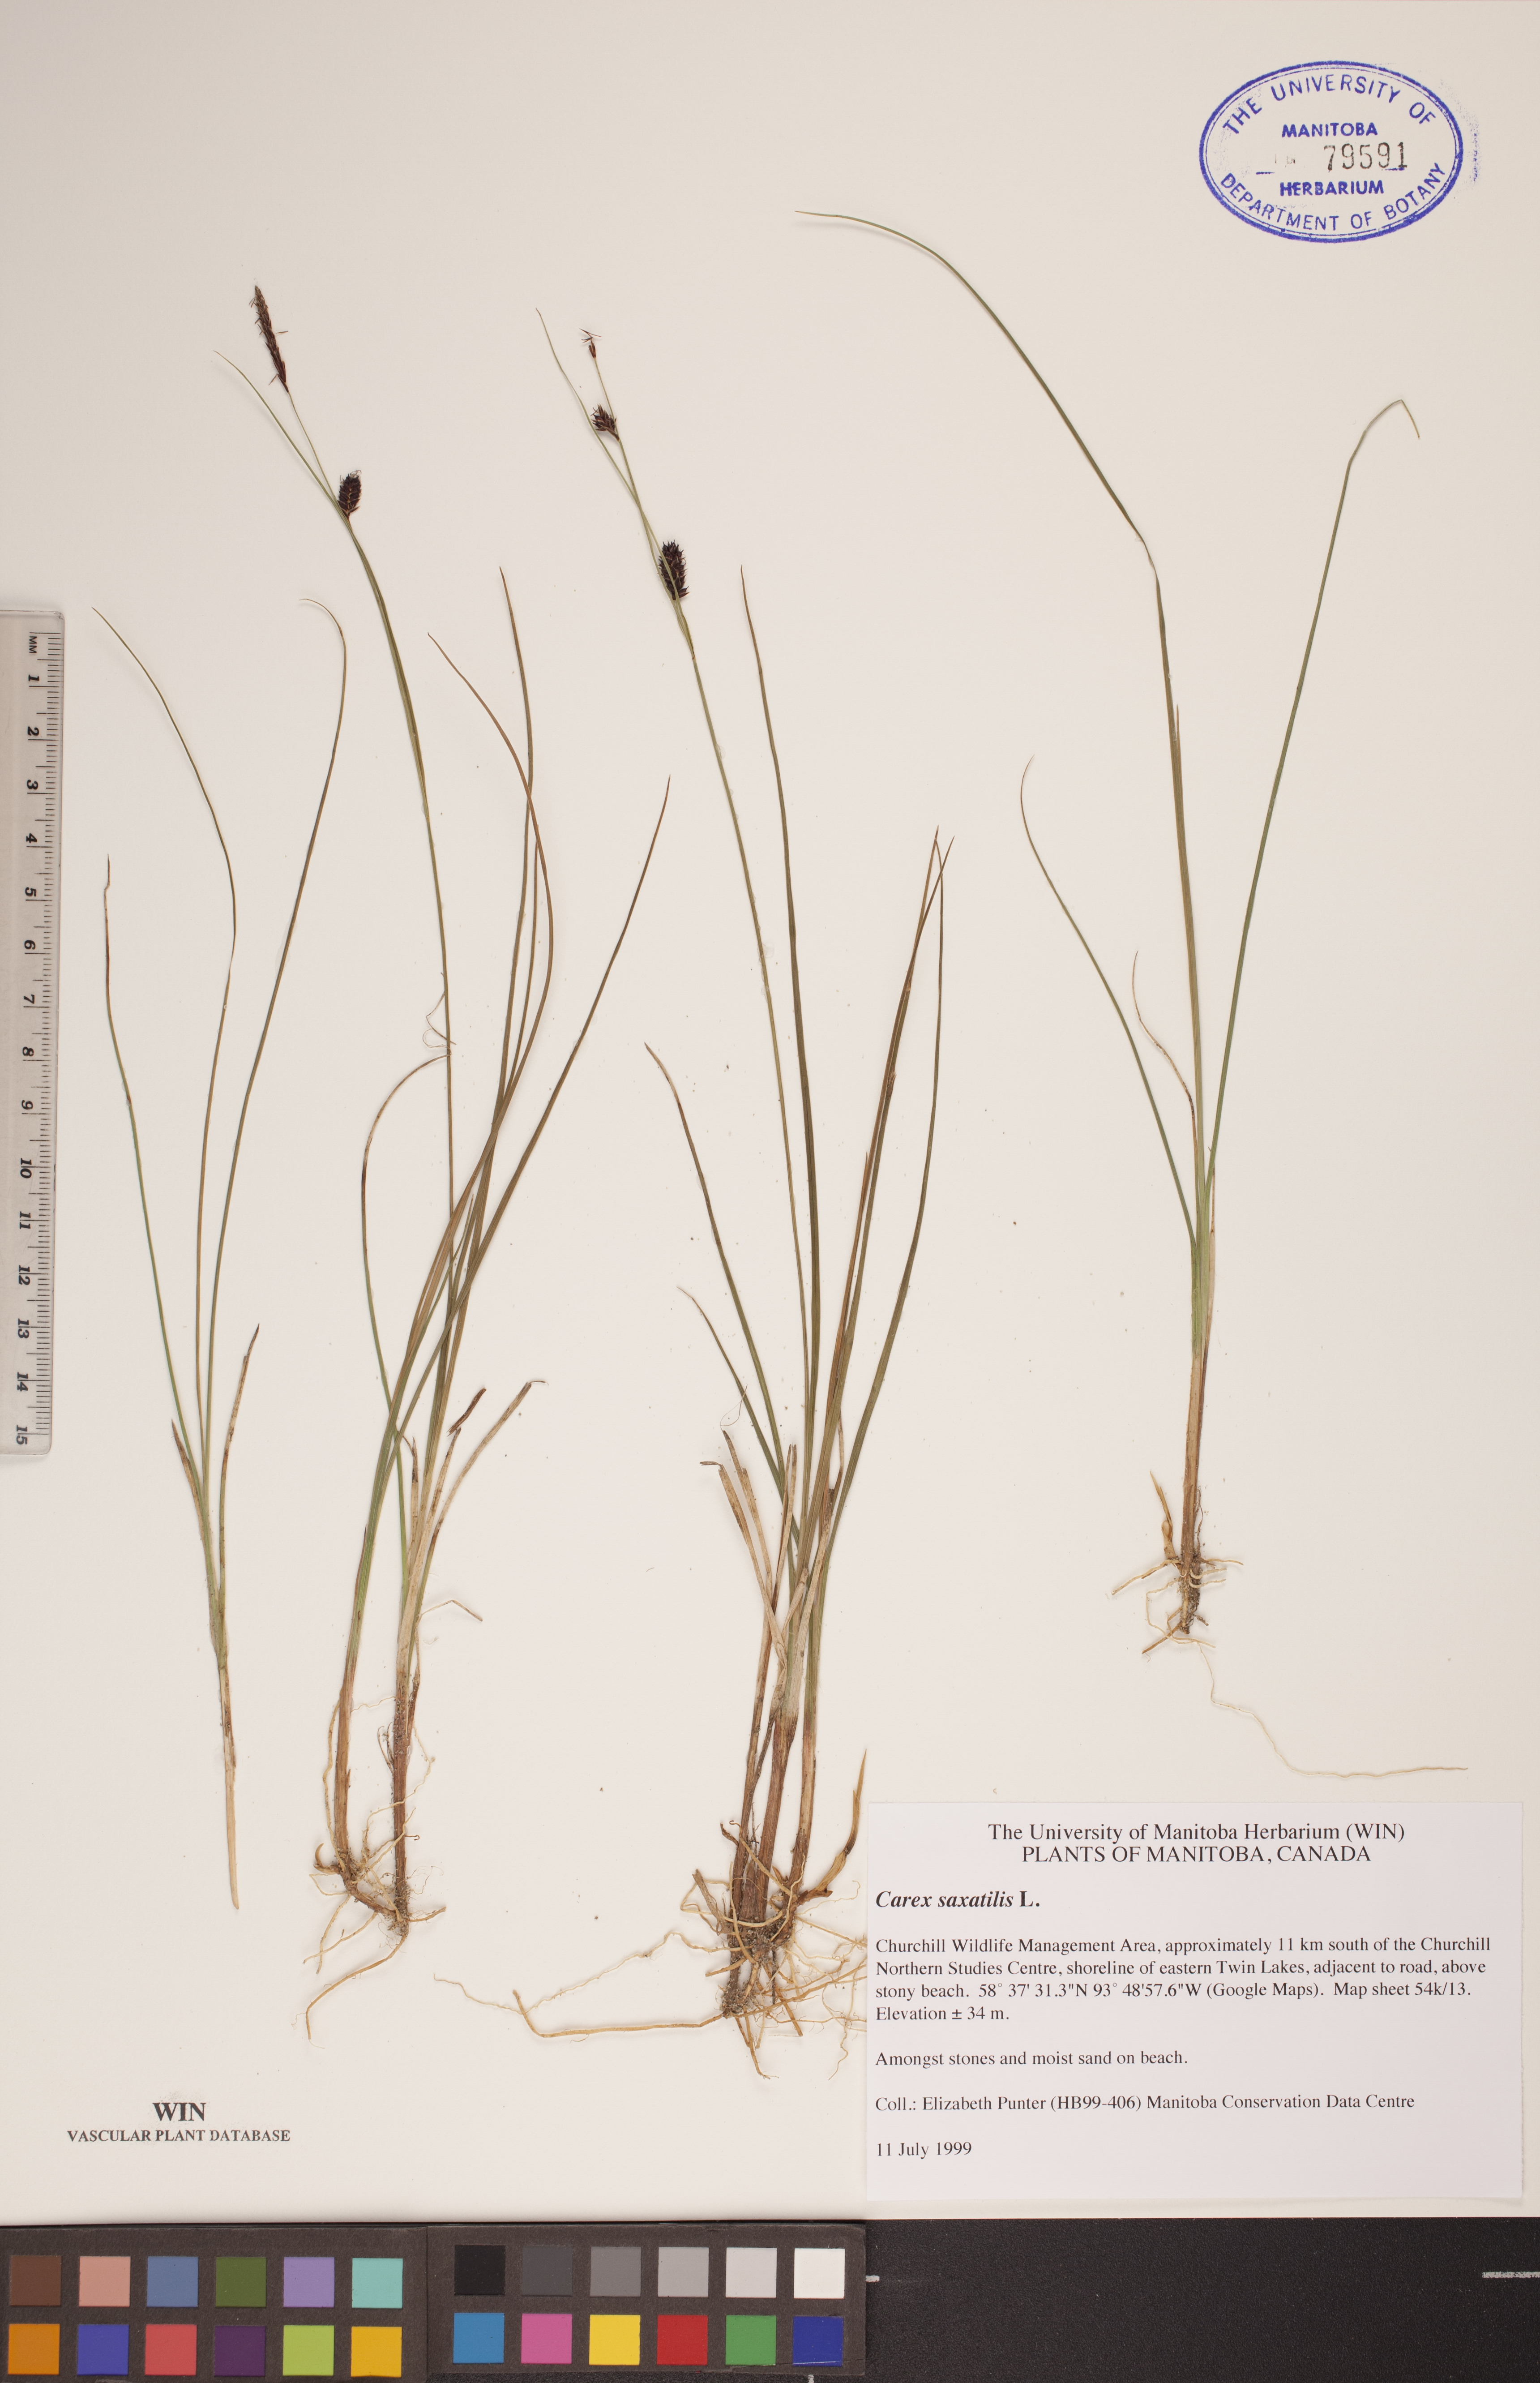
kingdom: Plantae
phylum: Tracheophyta
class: Liliopsida
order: Poales
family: Cyperaceae
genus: Carex
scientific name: Carex saxatilis
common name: Russet sedge
